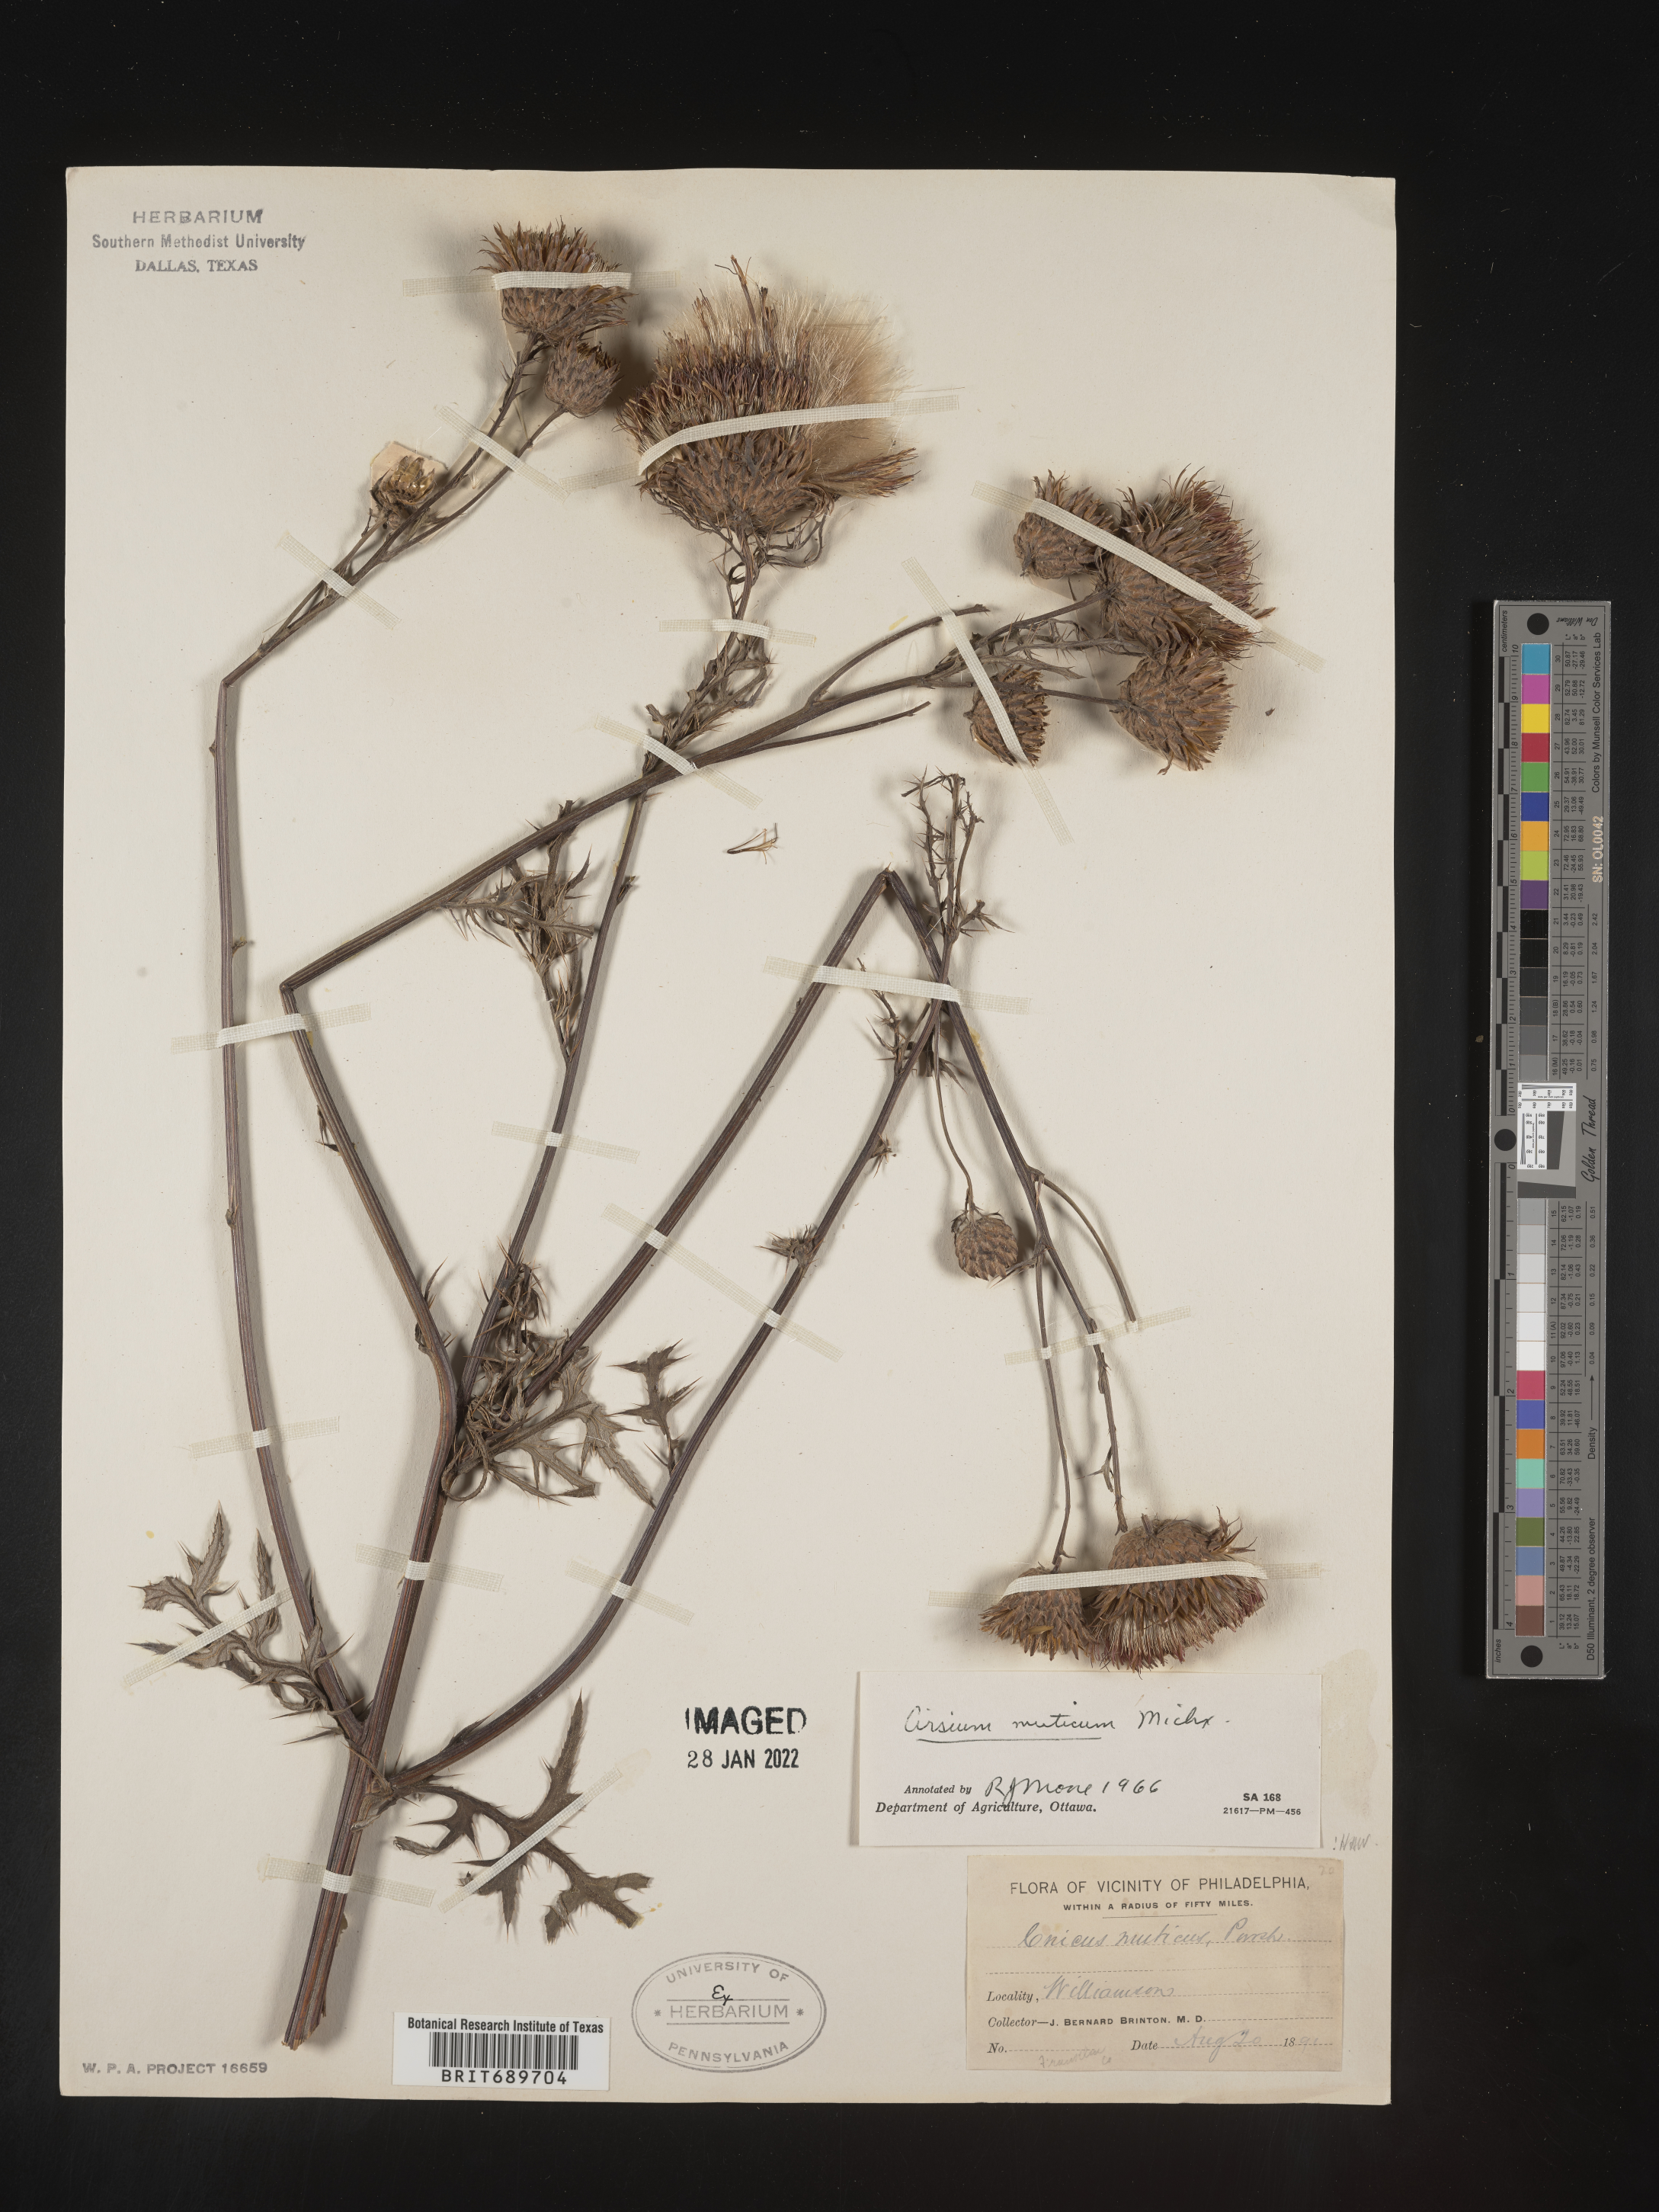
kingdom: Plantae
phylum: Tracheophyta
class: Magnoliopsida
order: Asterales
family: Asteraceae
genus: Cirsium
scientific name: Cirsium muticum
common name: Dunce-nettle
